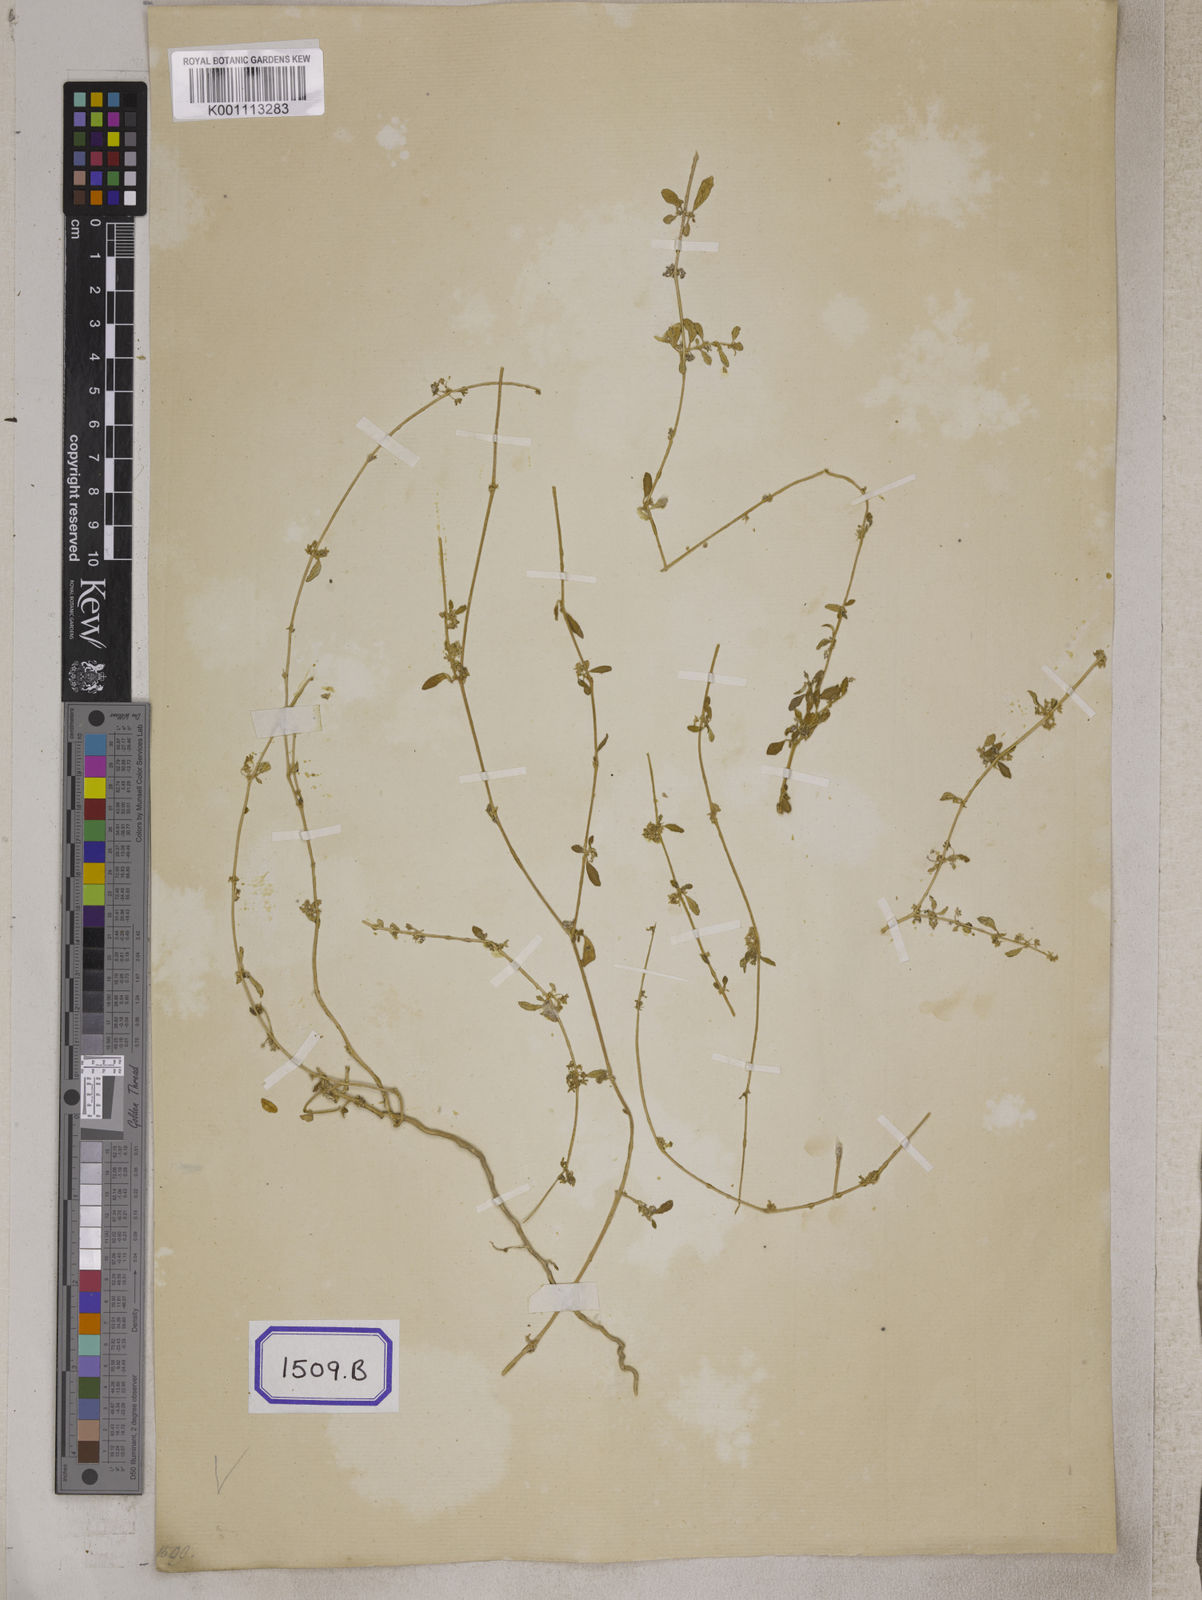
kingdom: Plantae
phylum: Tracheophyta
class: Magnoliopsida
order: Caryophyllales
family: Gisekiaceae
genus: Gisekia
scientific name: Gisekia
